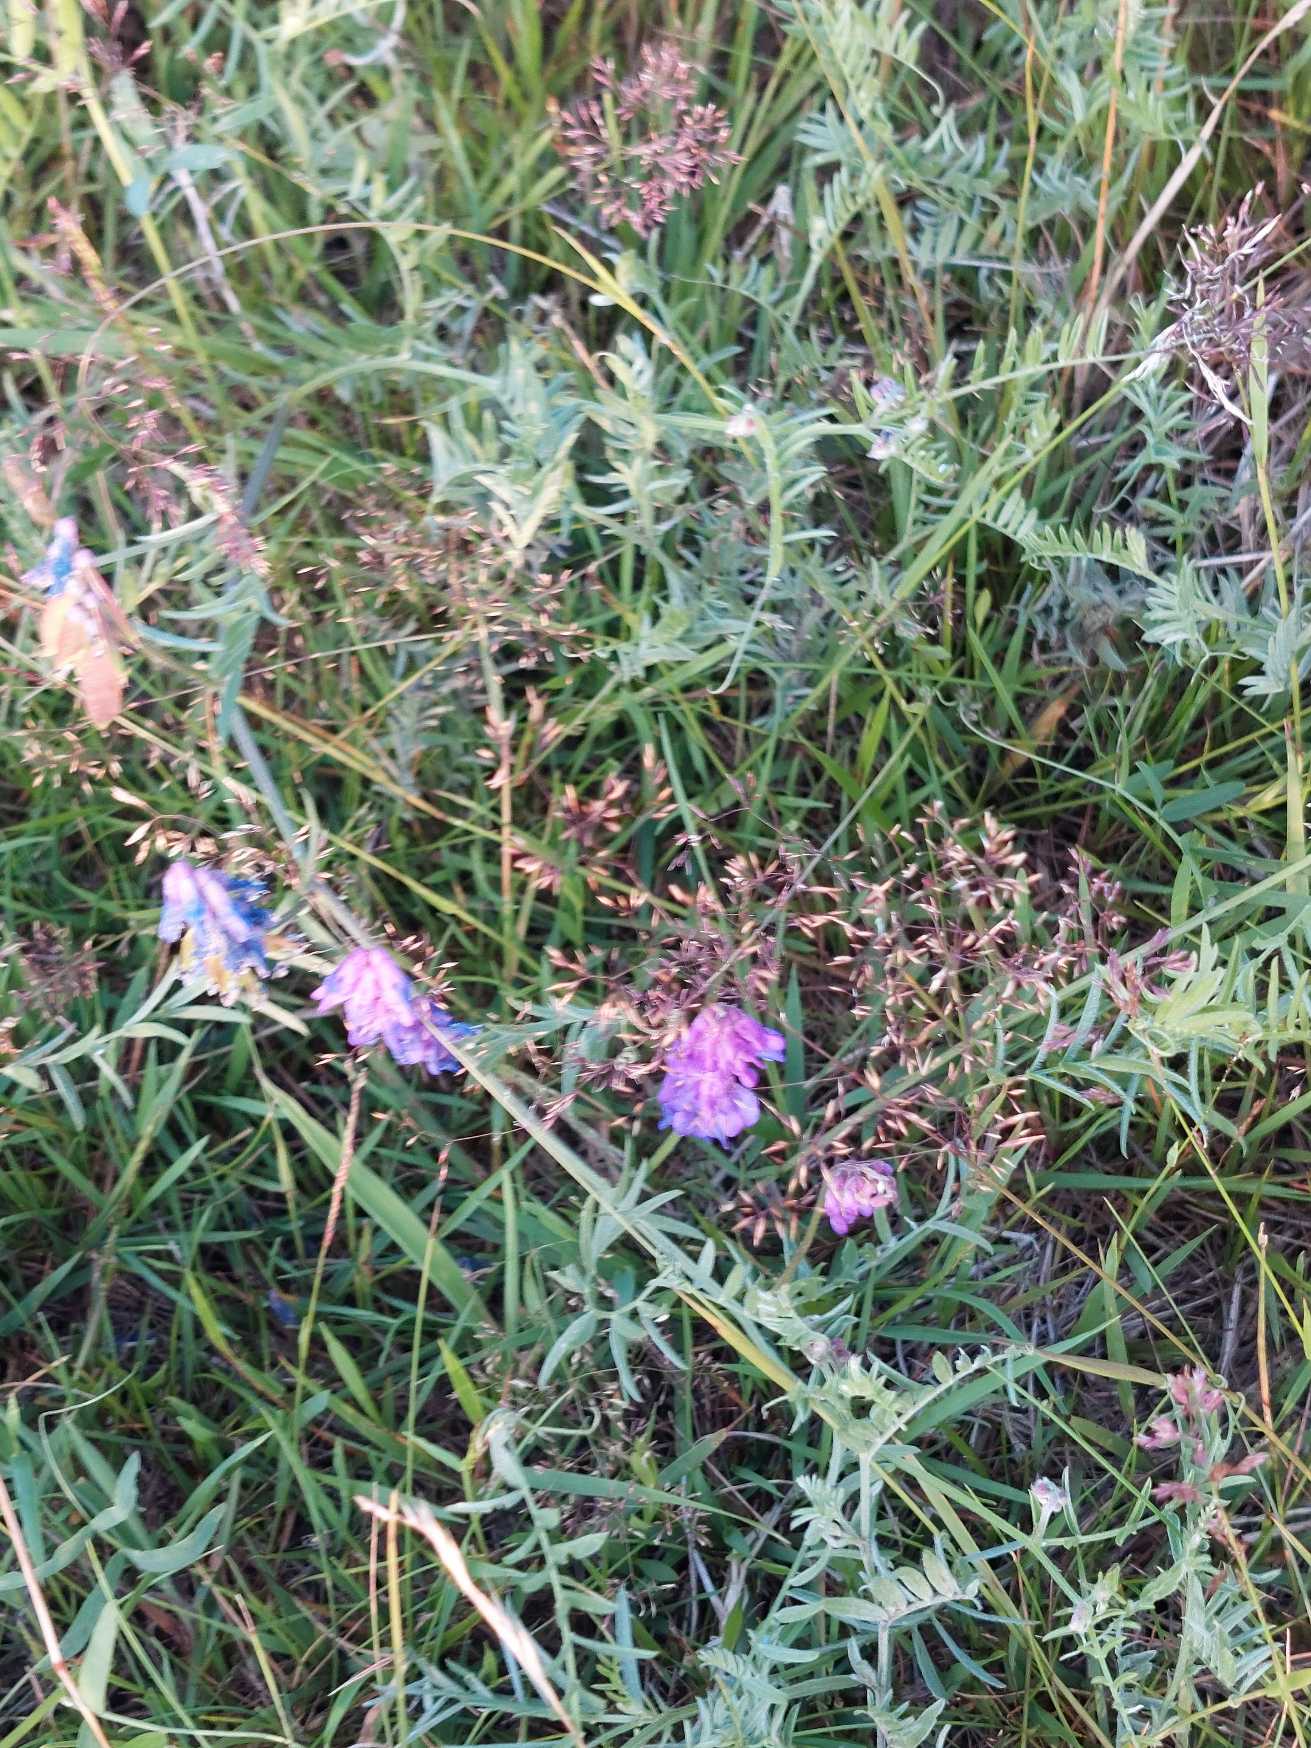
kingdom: Plantae
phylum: Tracheophyta
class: Magnoliopsida
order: Fabales
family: Fabaceae
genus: Vicia
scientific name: Vicia cracca
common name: Muse-vikke
